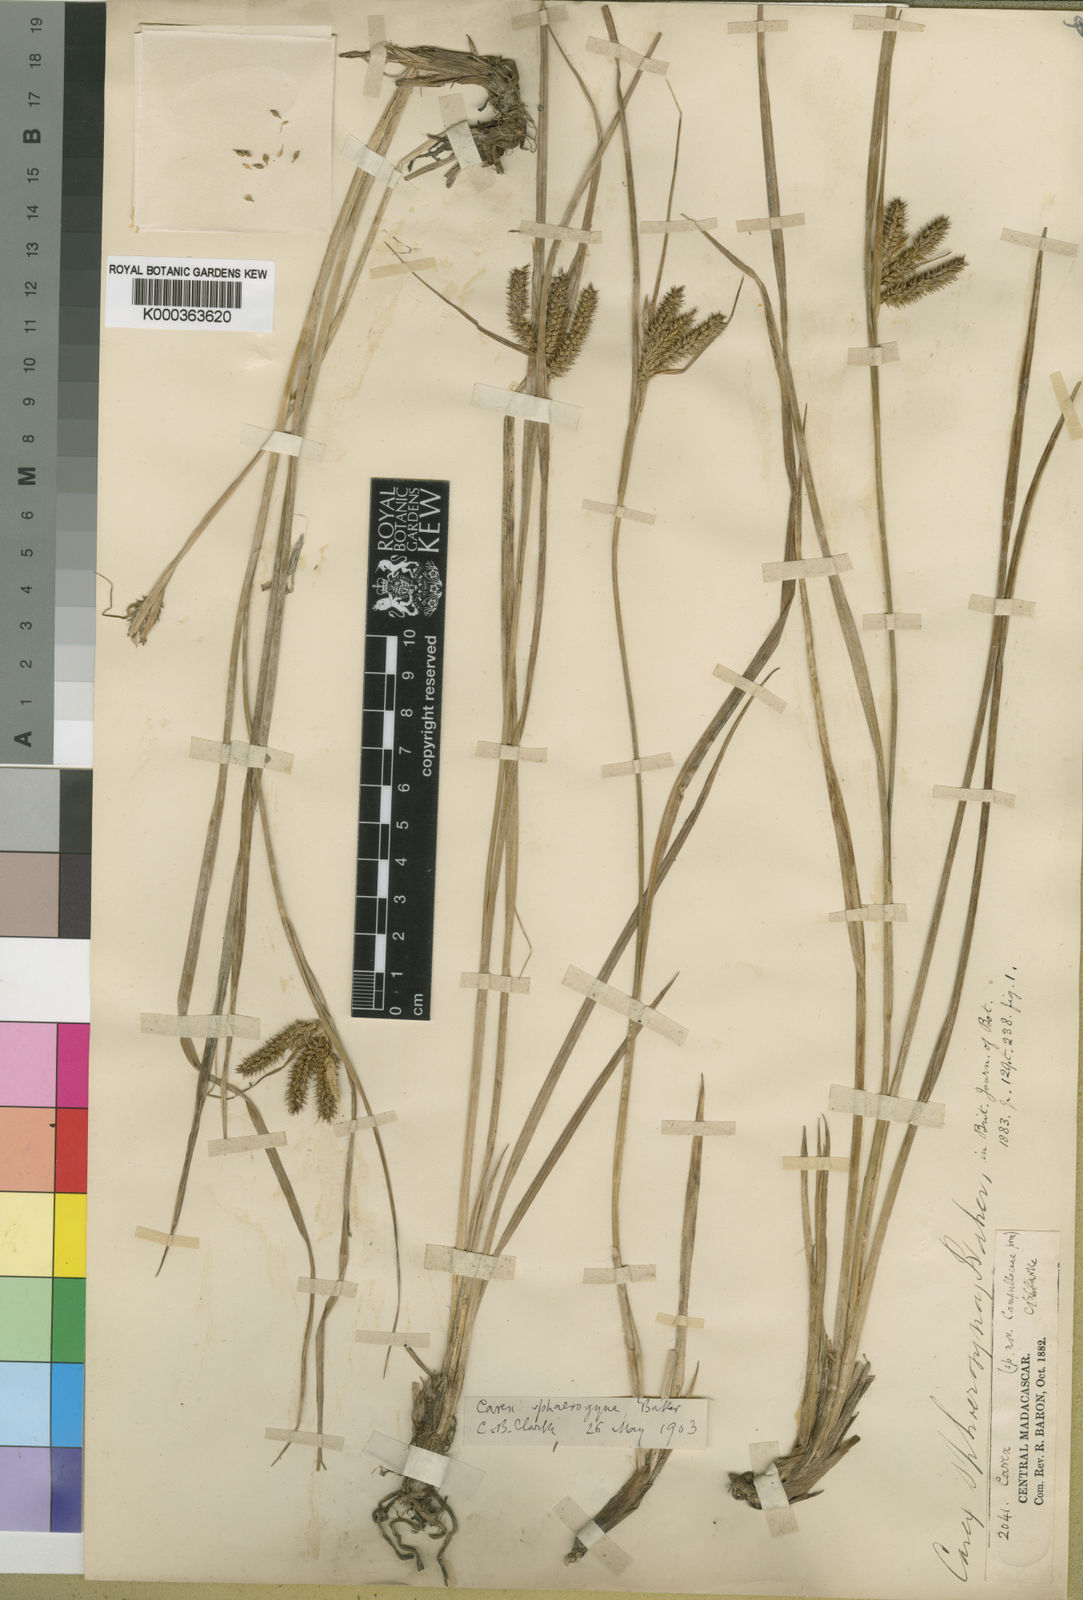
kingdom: Plantae
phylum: Tracheophyta
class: Liliopsida
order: Poales
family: Cyperaceae
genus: Carex
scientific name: Carex sphaerogyna
